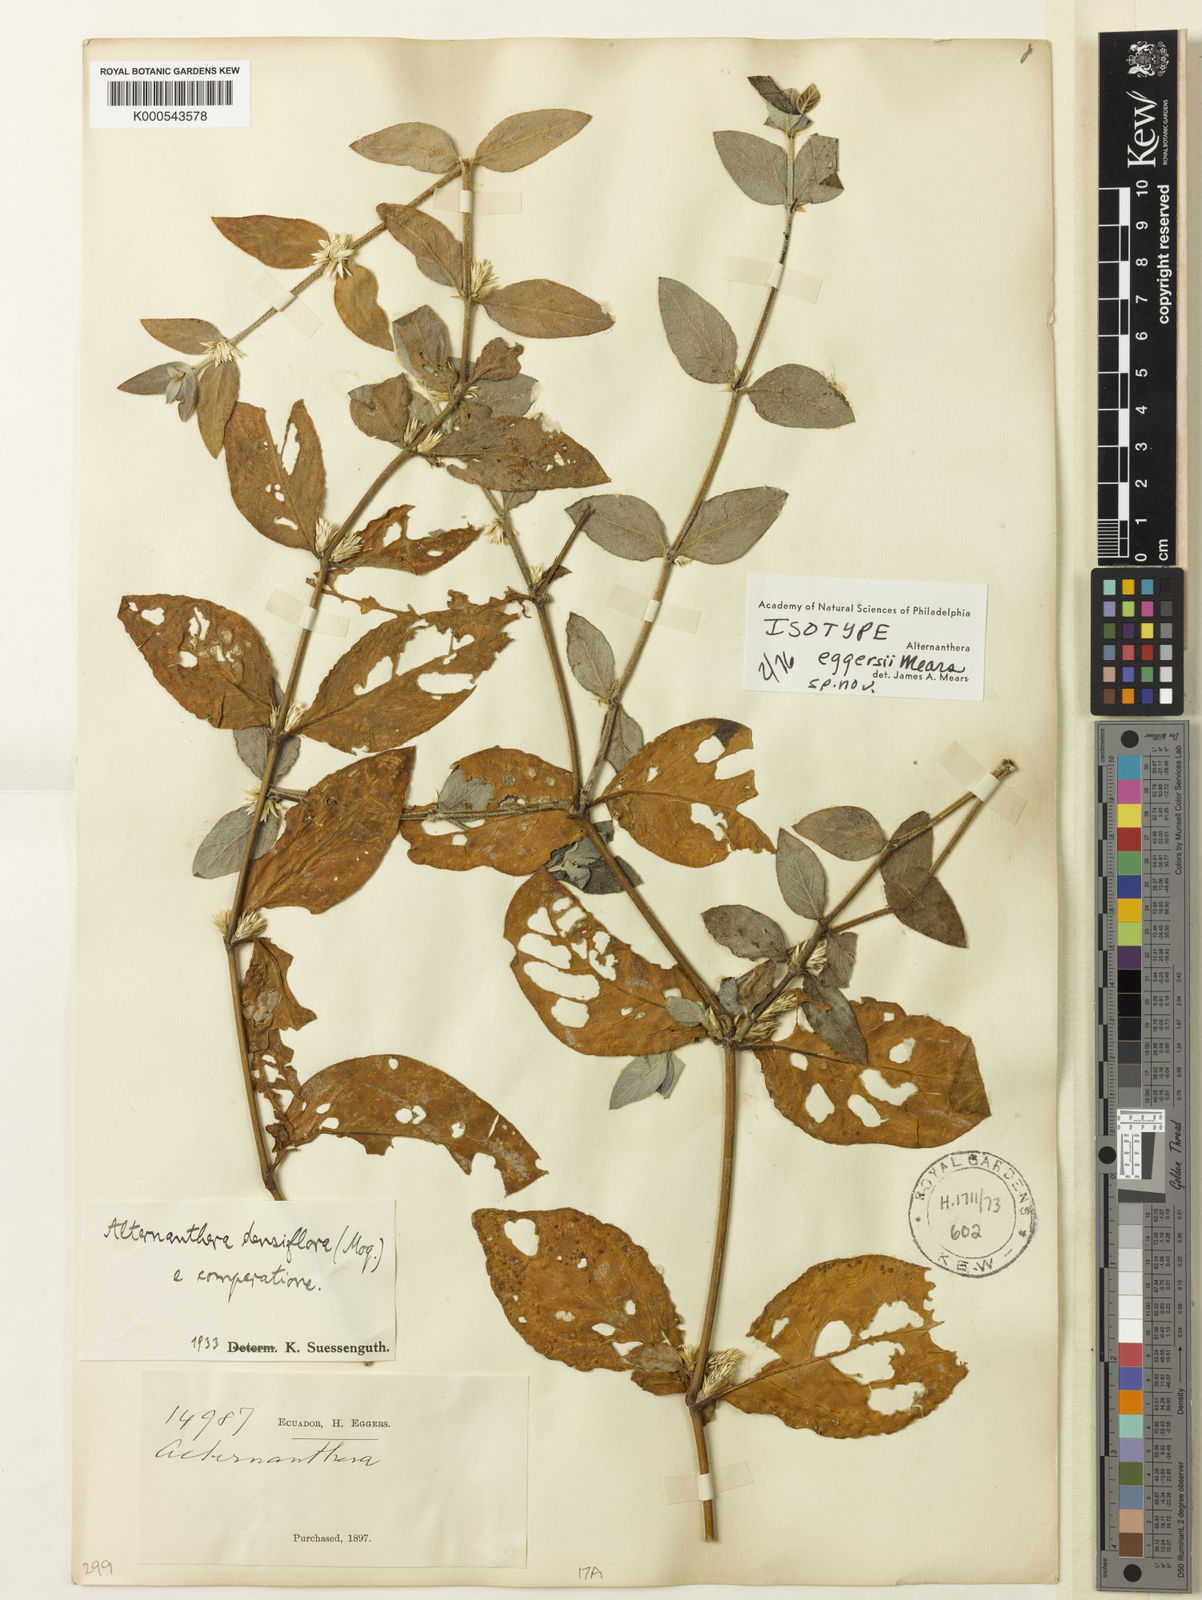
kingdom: Plantae
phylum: Tracheophyta
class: Magnoliopsida
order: Caryophyllales
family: Amaranthaceae
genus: Alternanthera
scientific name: Alternanthera
